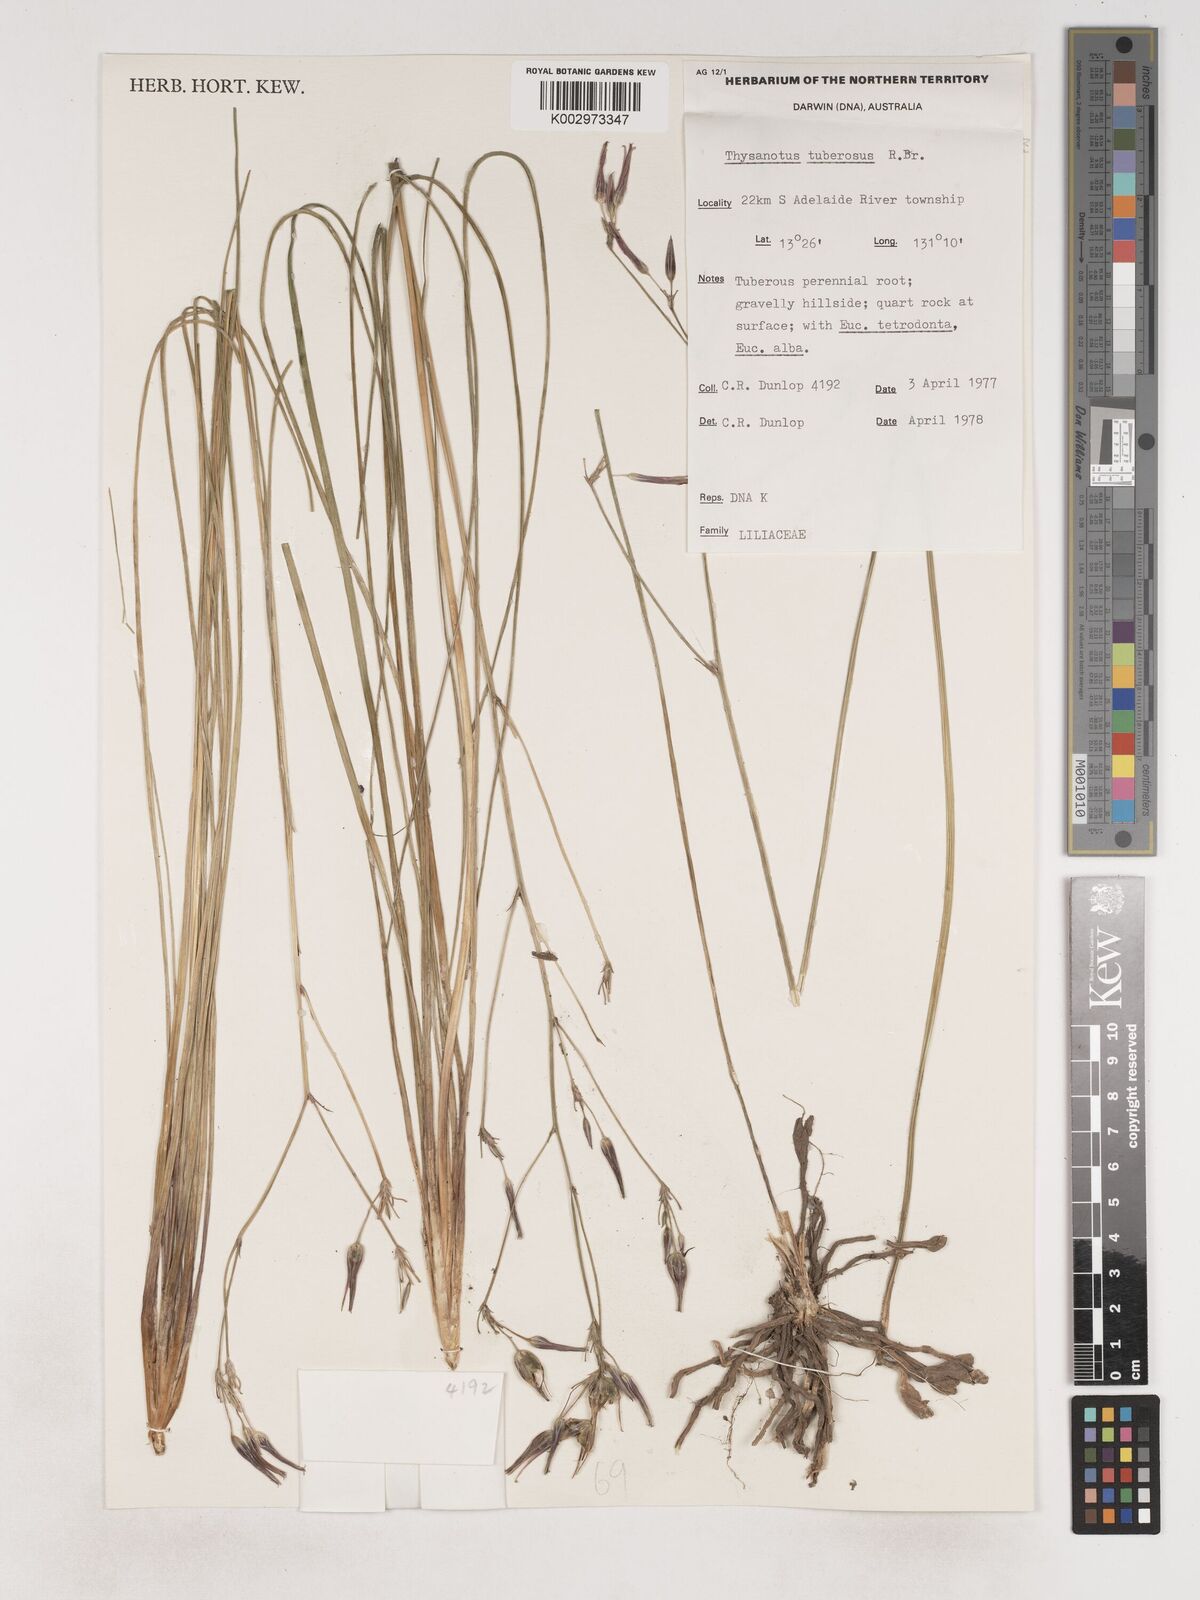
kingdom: Plantae
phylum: Tracheophyta
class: Liliopsida
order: Asparagales
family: Asparagaceae
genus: Thysanotus
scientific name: Thysanotus tuberosus
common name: Common fringed-lily
